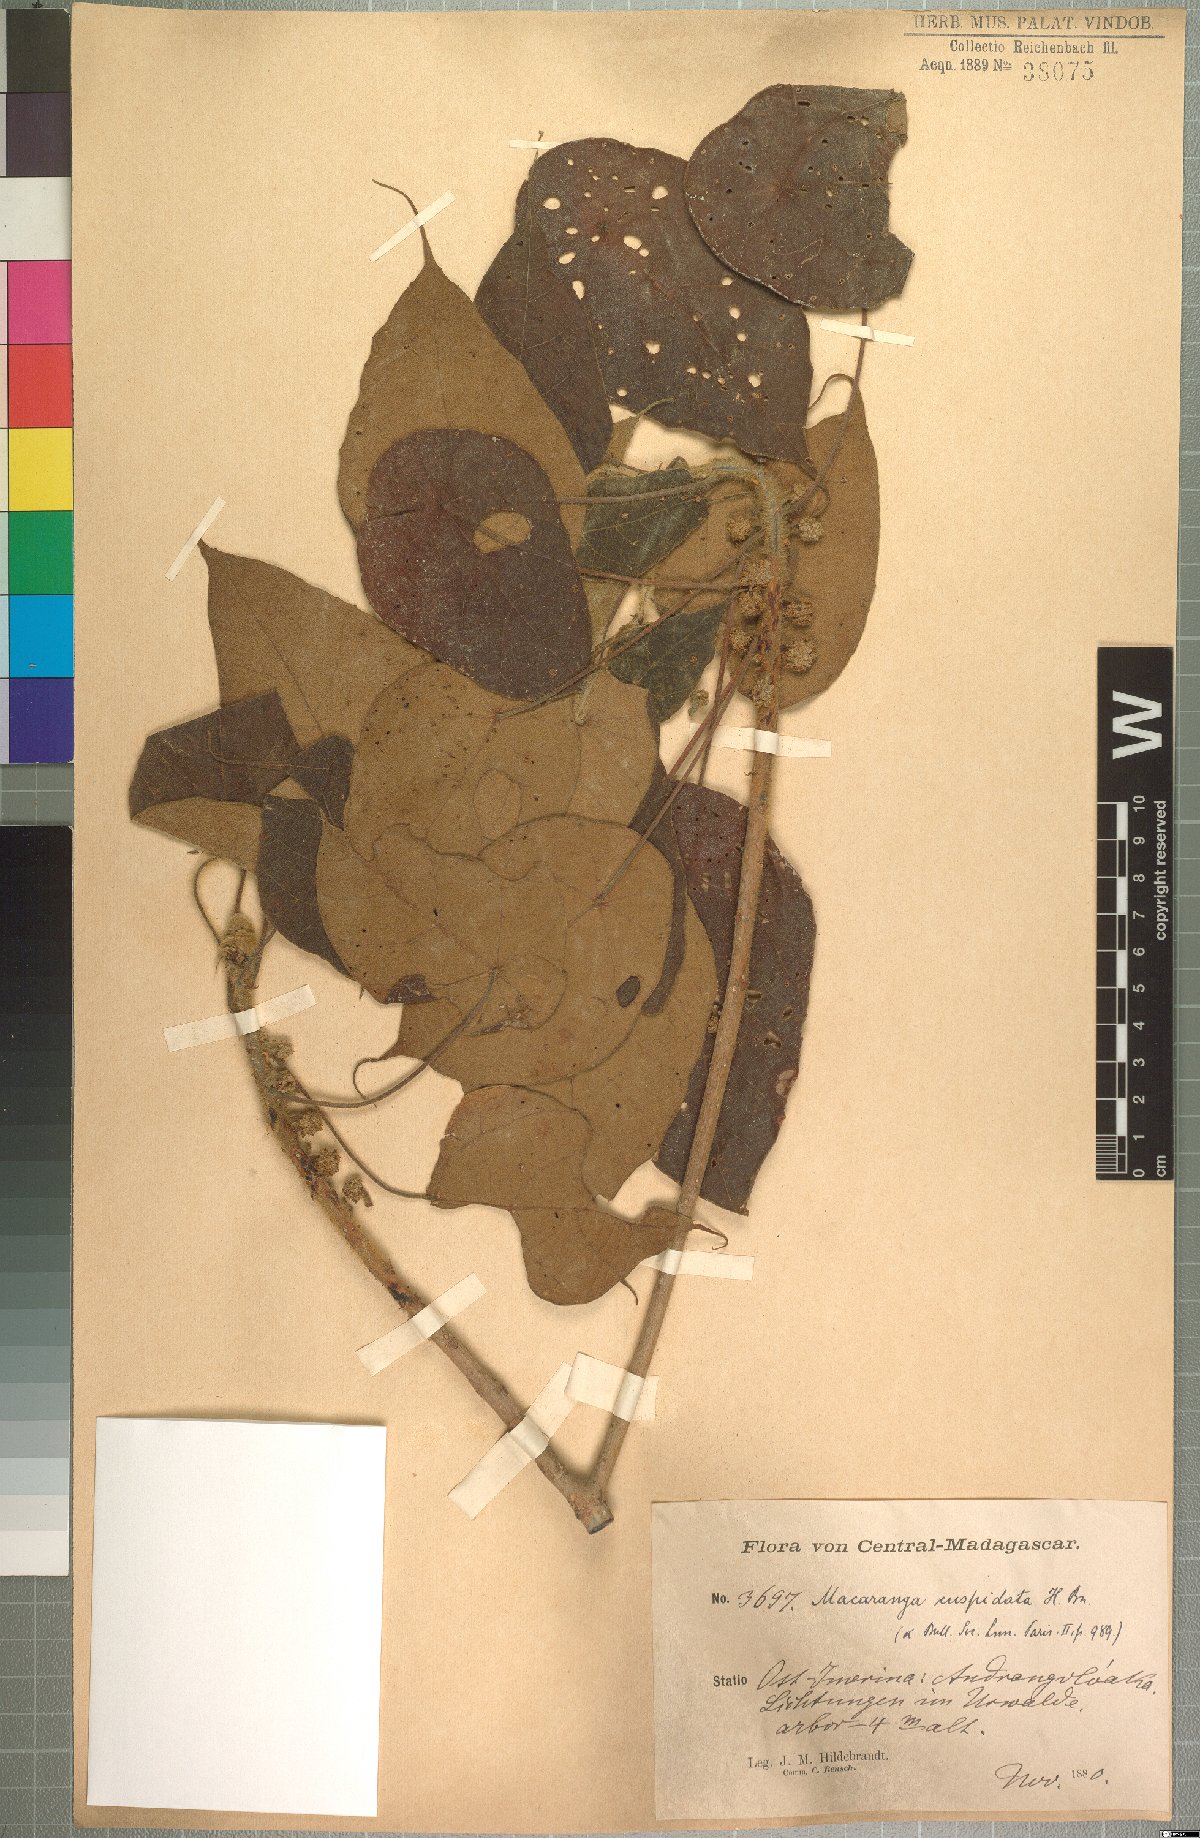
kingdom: Plantae
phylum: Tracheophyta
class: Magnoliopsida
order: Malpighiales
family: Euphorbiaceae
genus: Macaranga
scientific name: Macaranga cuspidata
